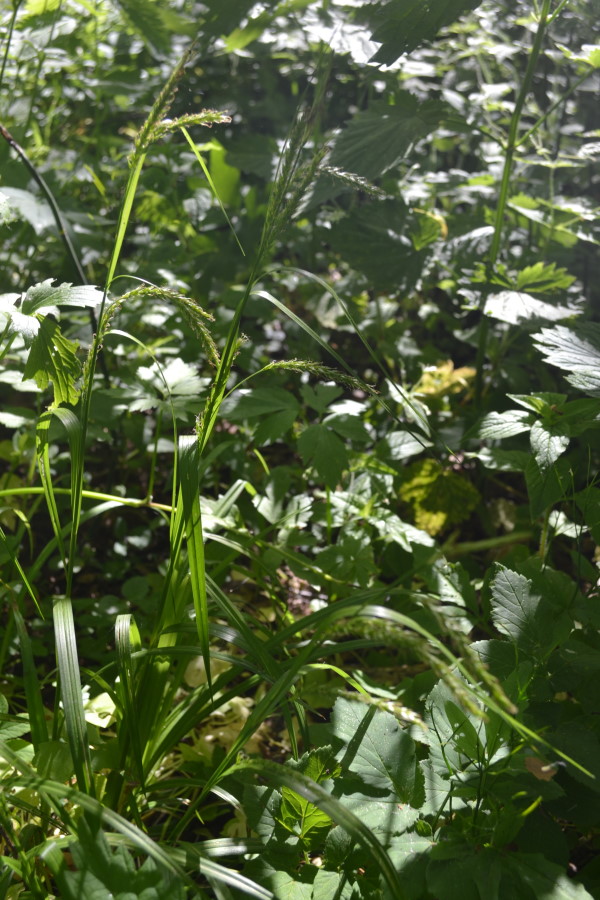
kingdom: Plantae
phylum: Tracheophyta
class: Liliopsida
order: Poales
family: Cyperaceae
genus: Carex
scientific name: Carex sylvatica
